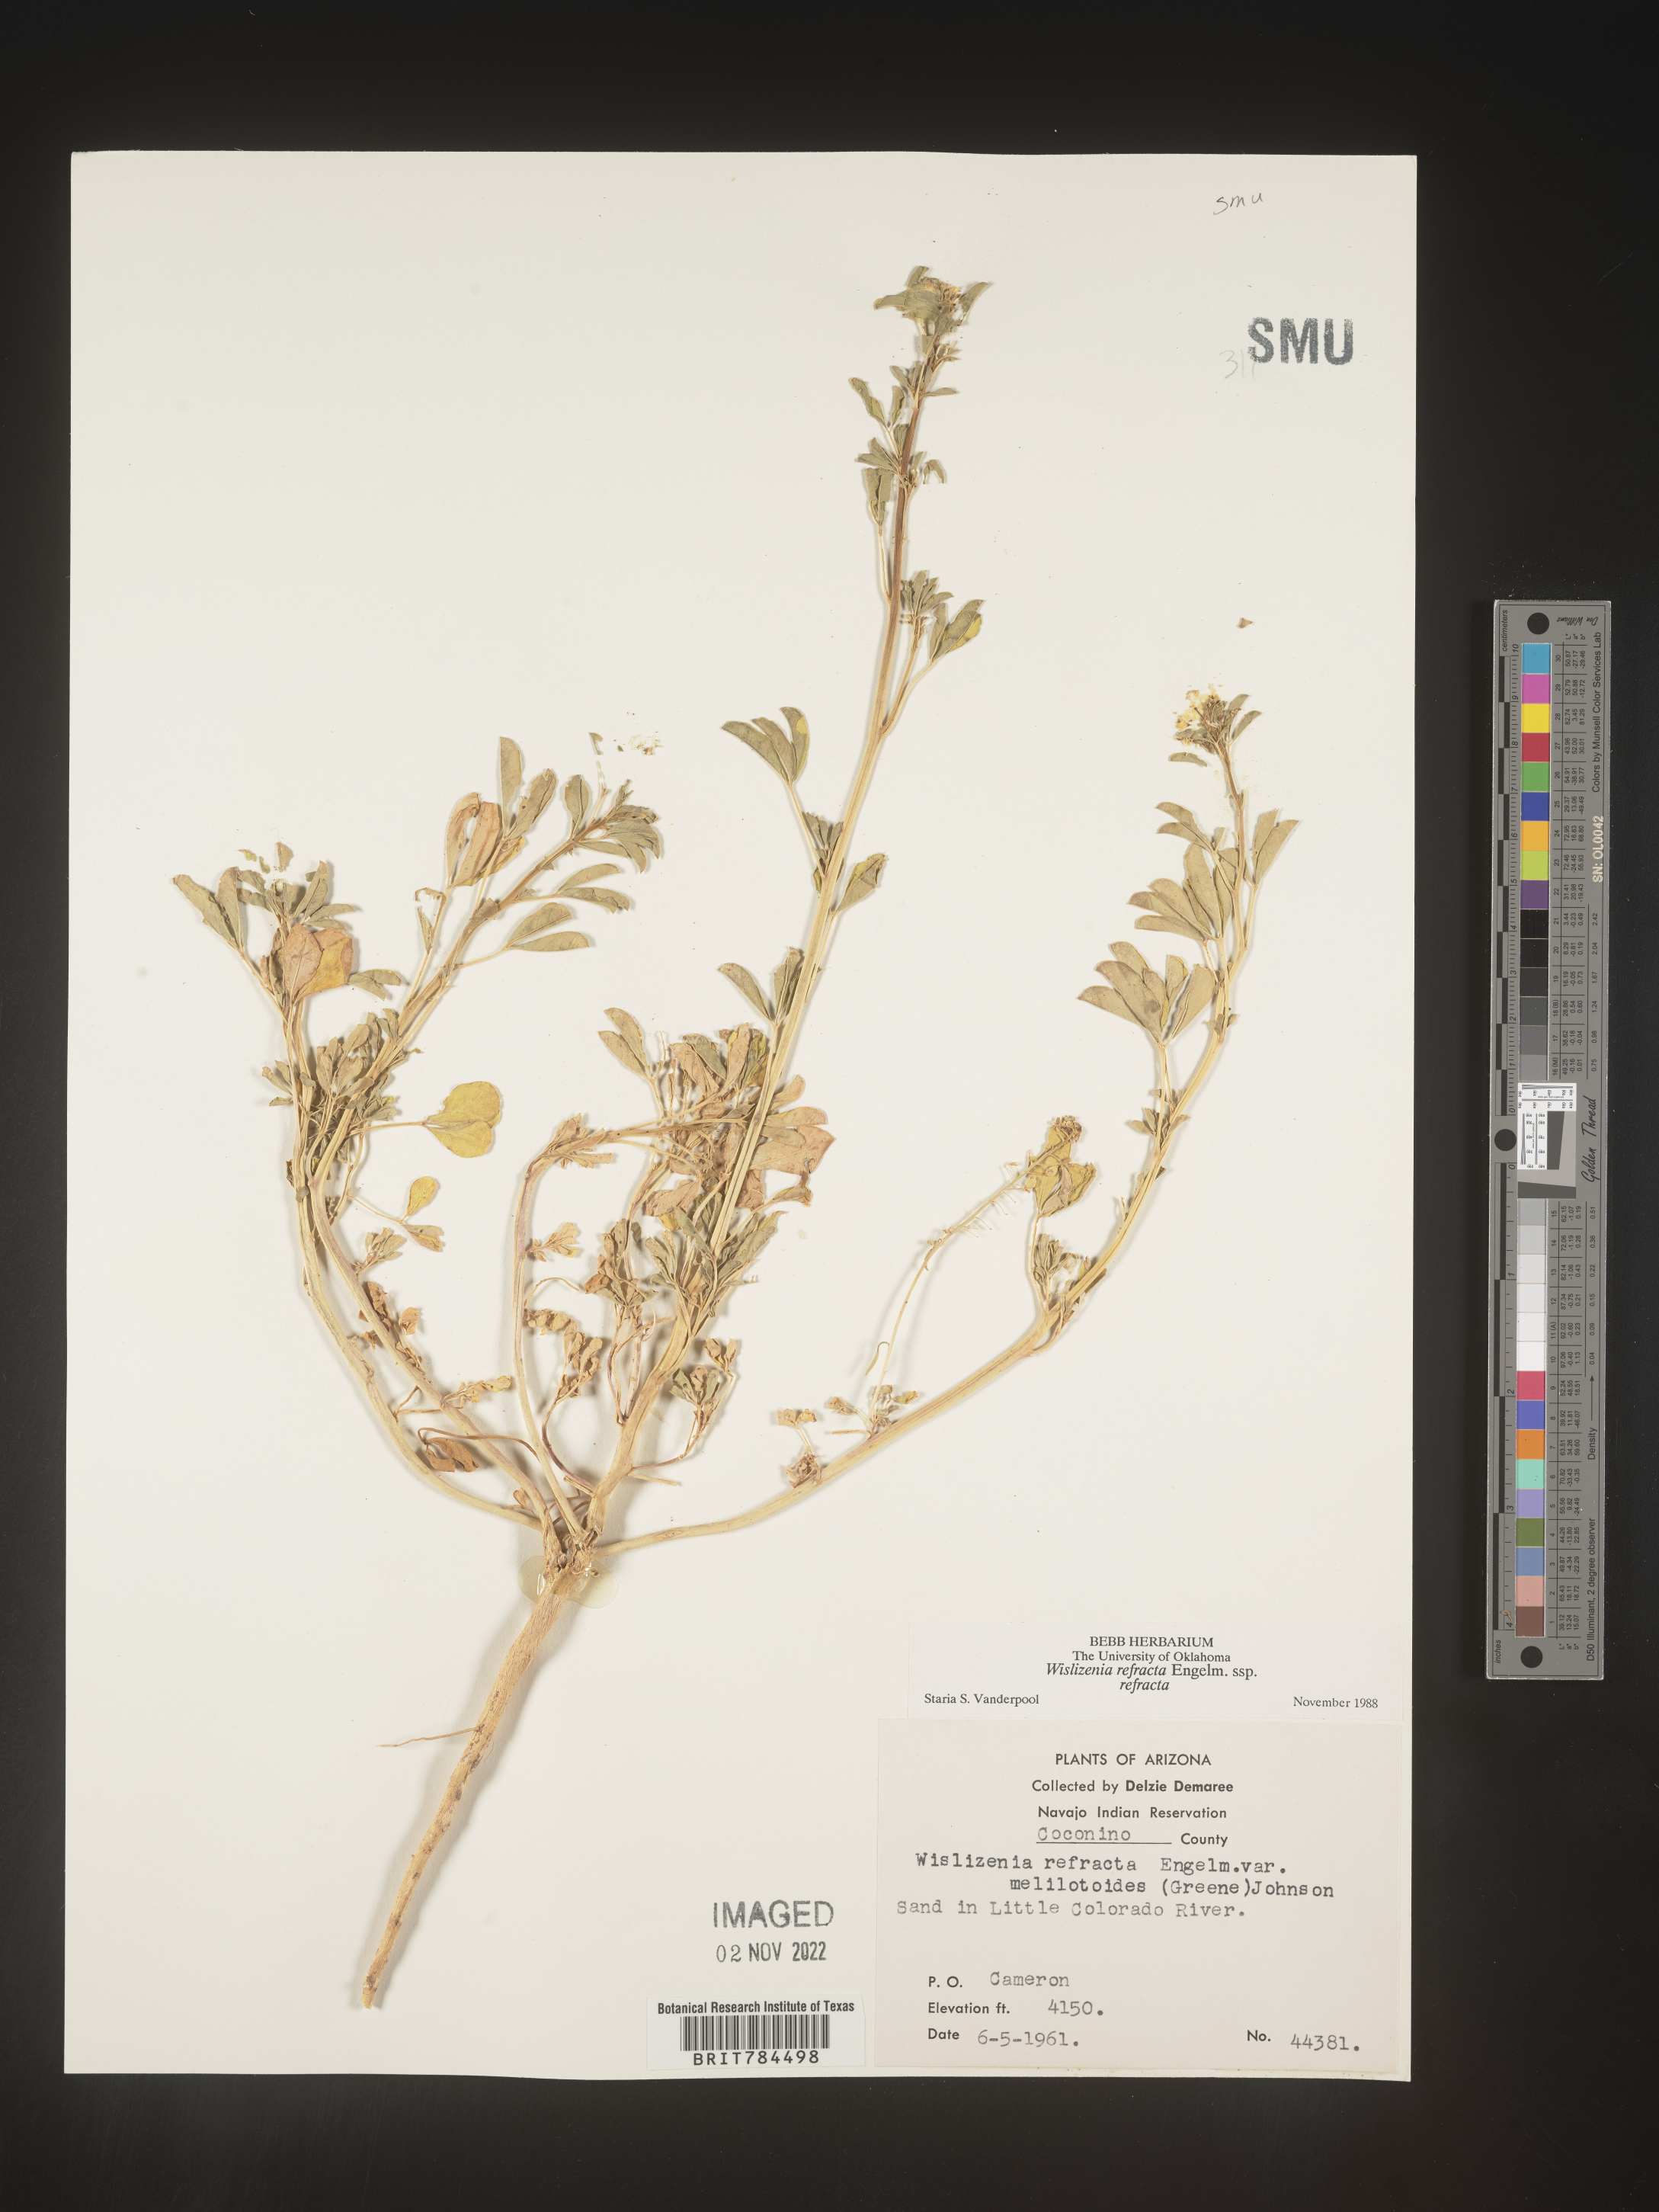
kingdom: Plantae
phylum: Tracheophyta
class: Magnoliopsida
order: Brassicales
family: Cleomaceae
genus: Cleomella
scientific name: Cleomella refracta
